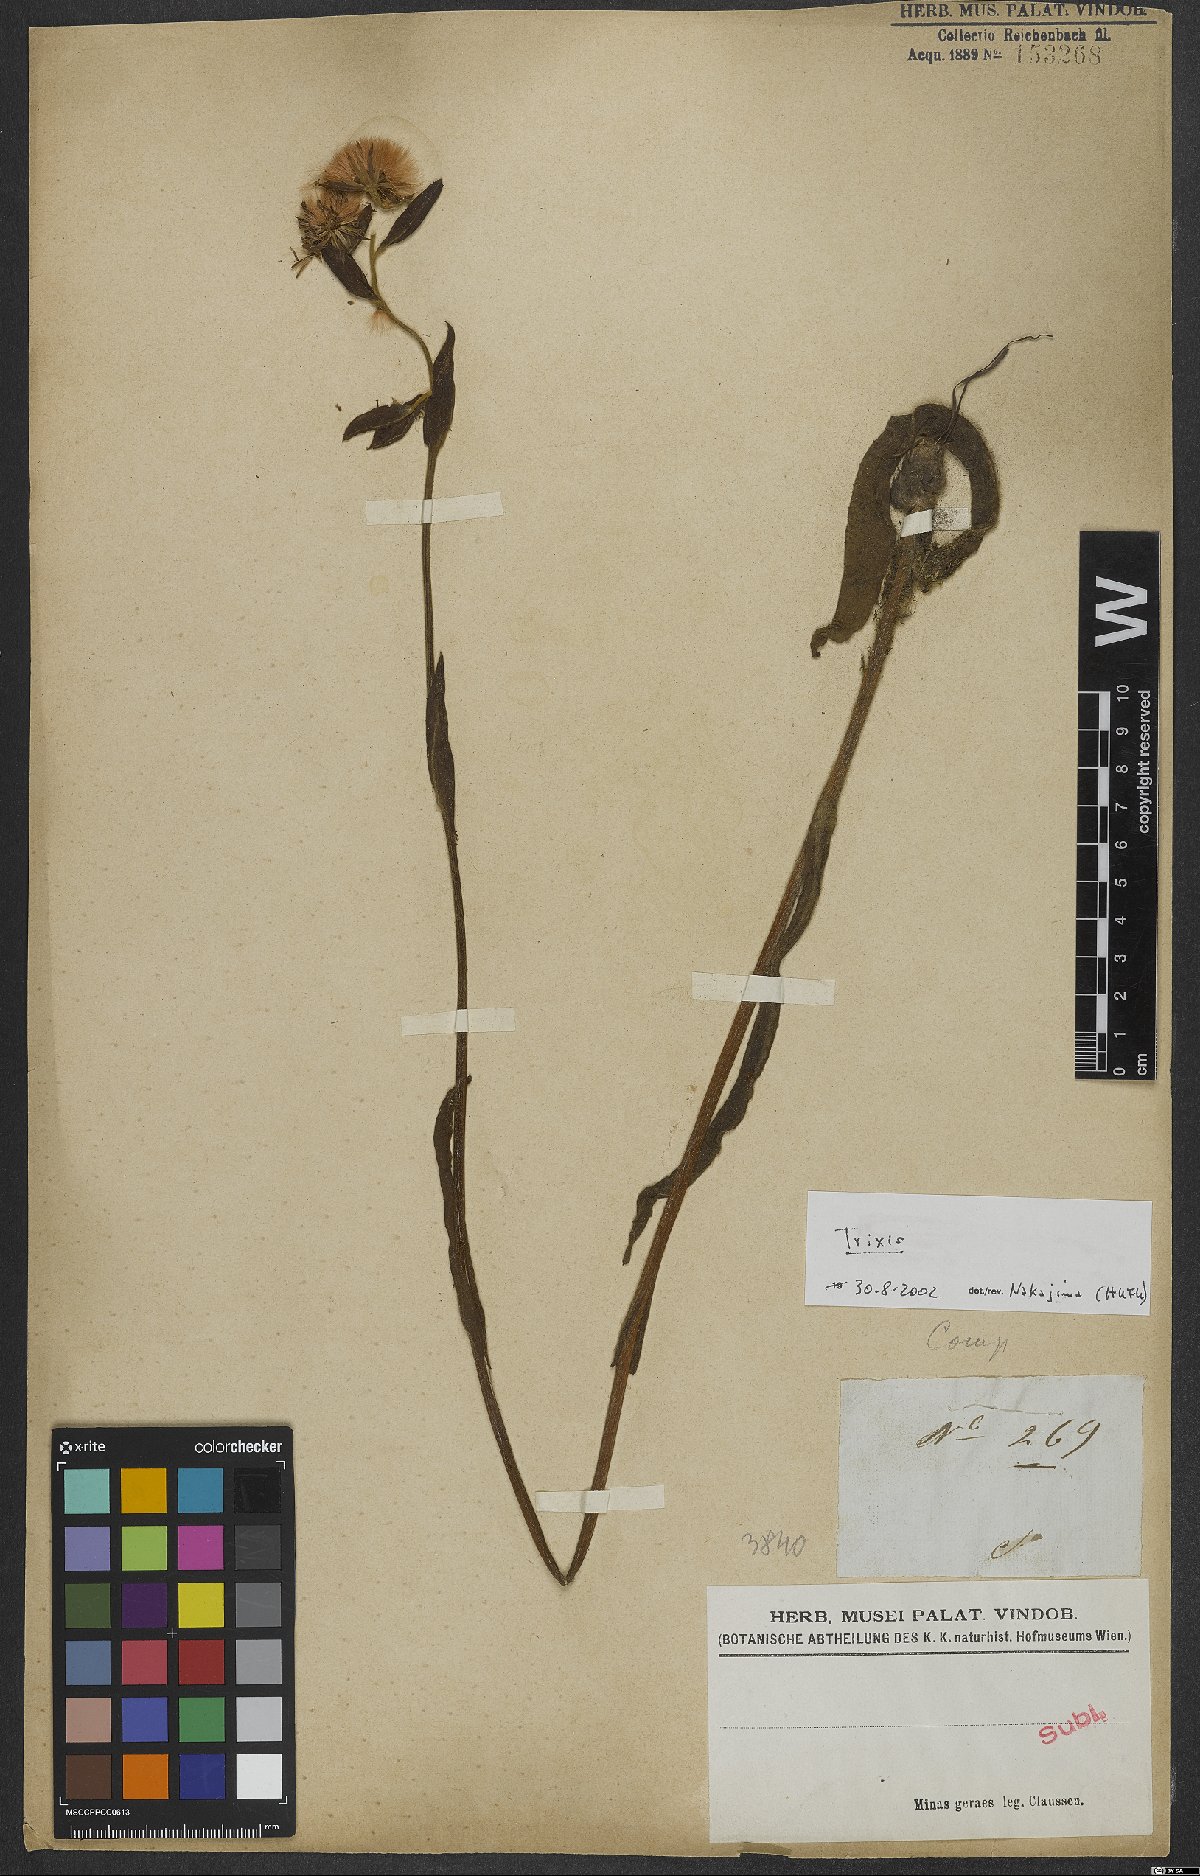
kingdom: Plantae
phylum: Tracheophyta
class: Magnoliopsida
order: Asterales
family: Asteraceae
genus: Trixis
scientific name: Trixis
